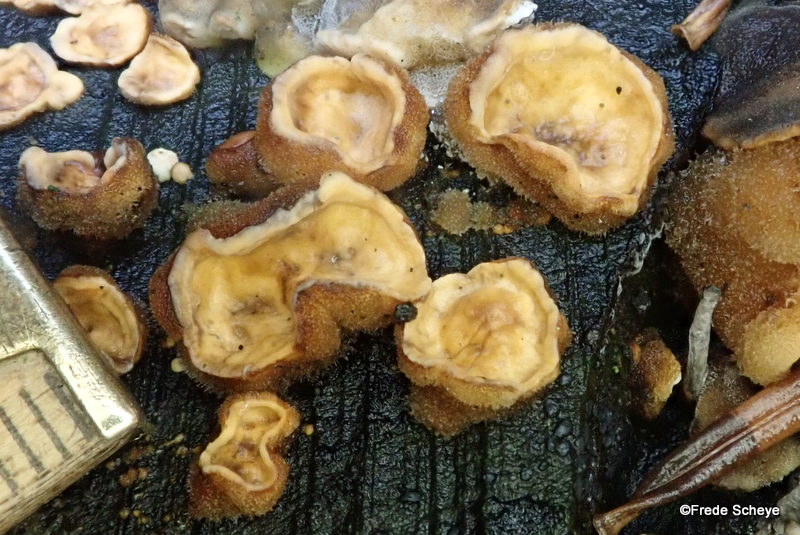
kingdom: Fungi
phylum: Basidiomycota
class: Agaricomycetes
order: Russulales
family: Stereaceae
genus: Stereum
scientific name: Stereum hirsutum
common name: håret lædersvamp
